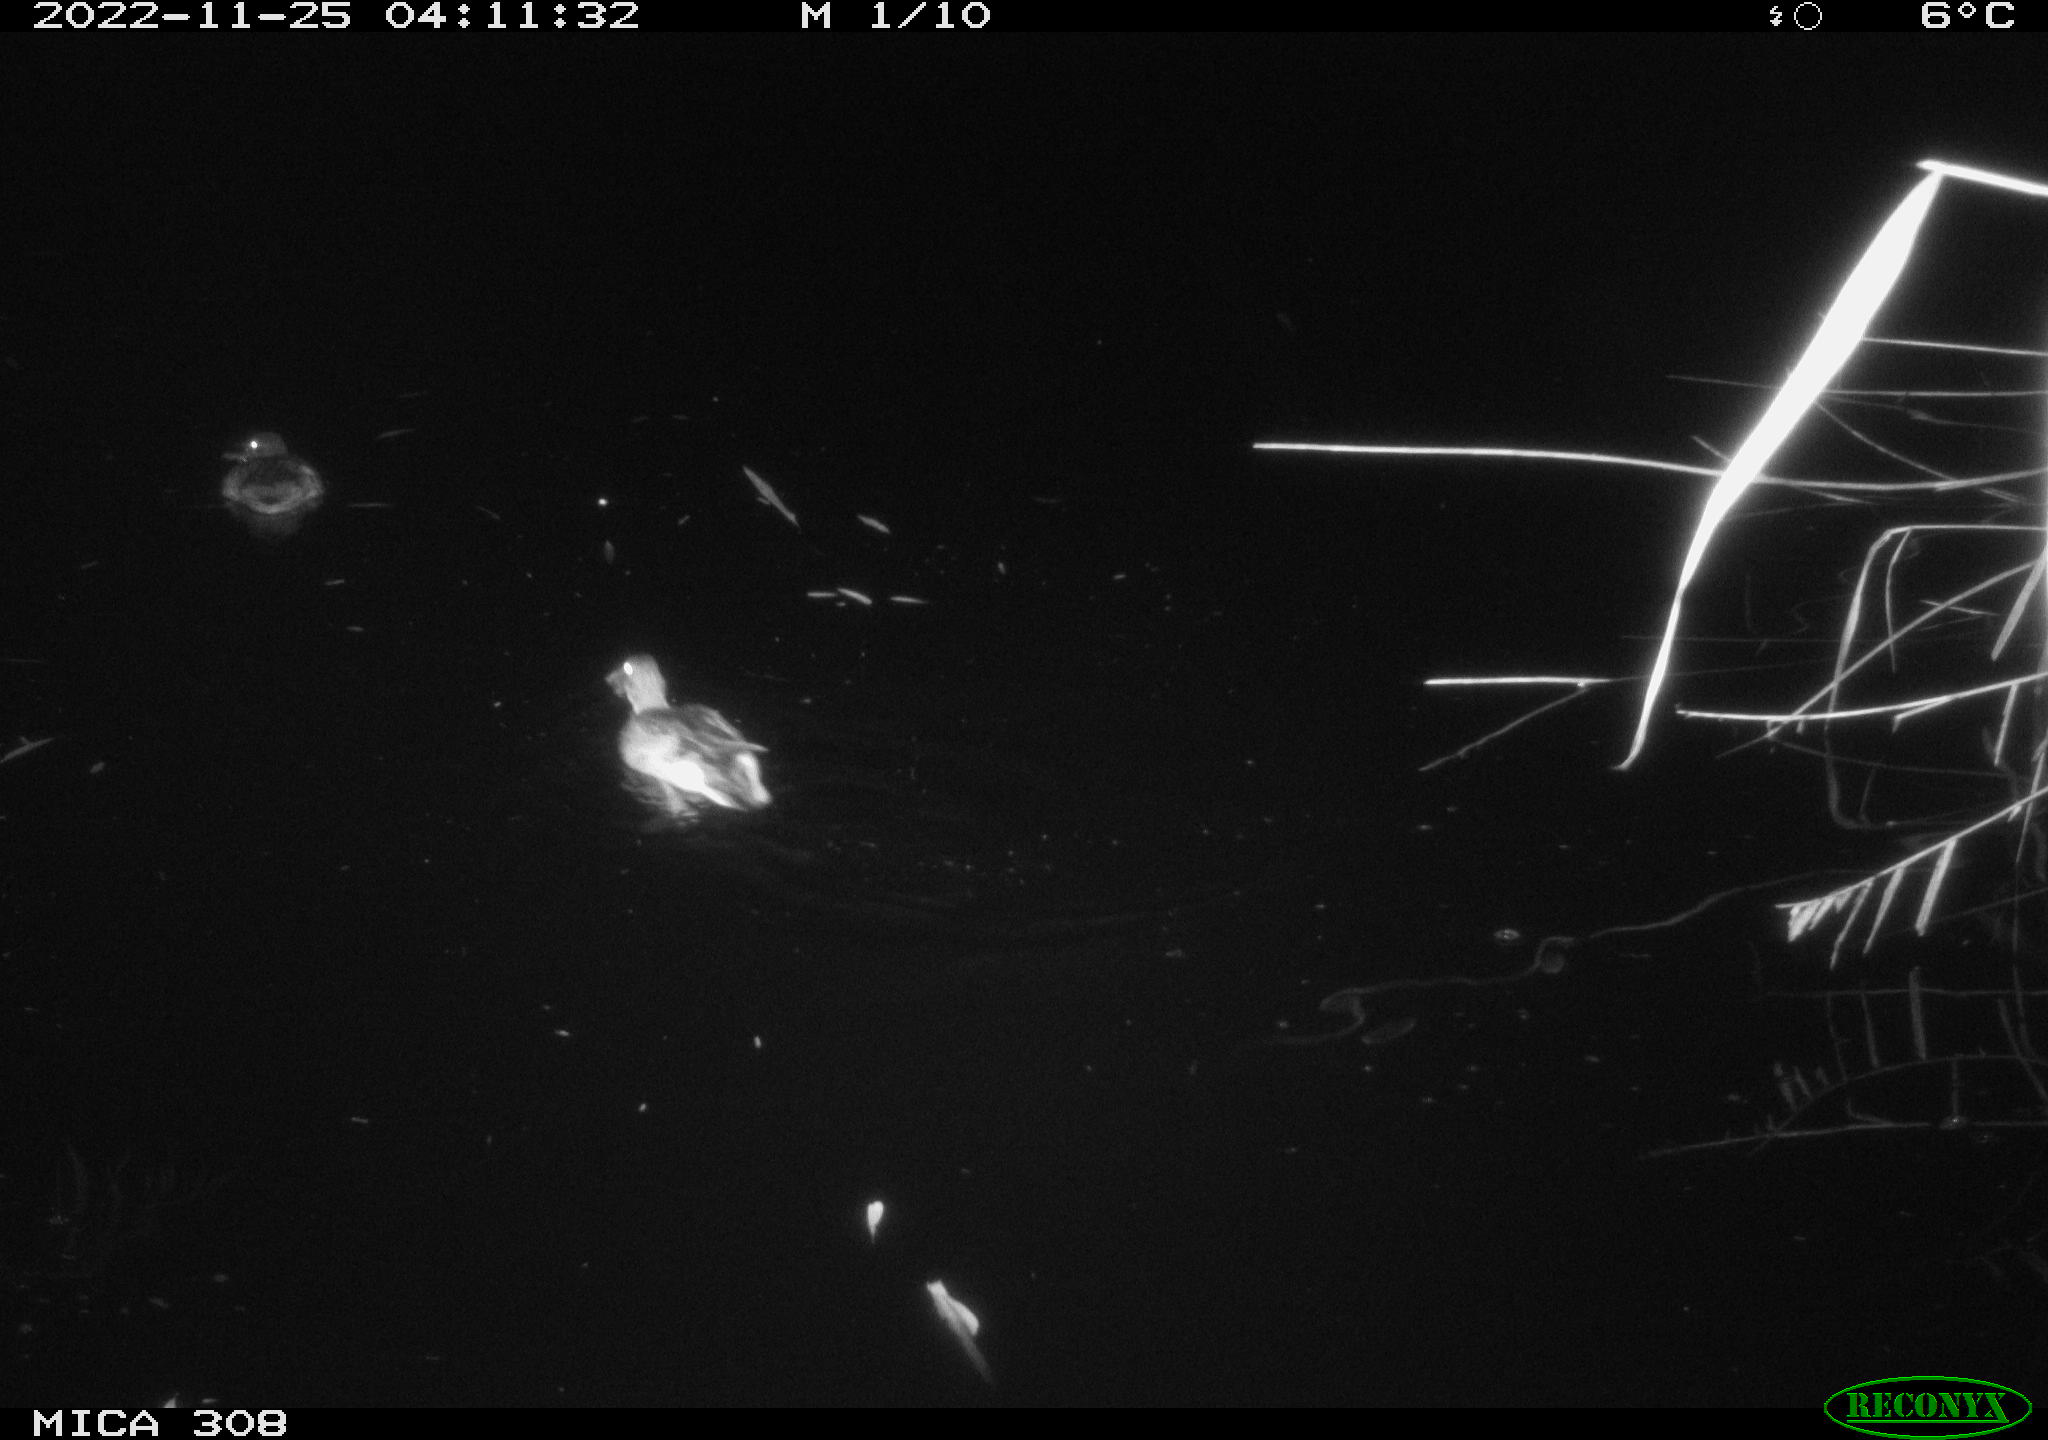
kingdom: Animalia
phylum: Chordata
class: Aves
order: Anseriformes
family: Anatidae
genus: Anas
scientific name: Anas
